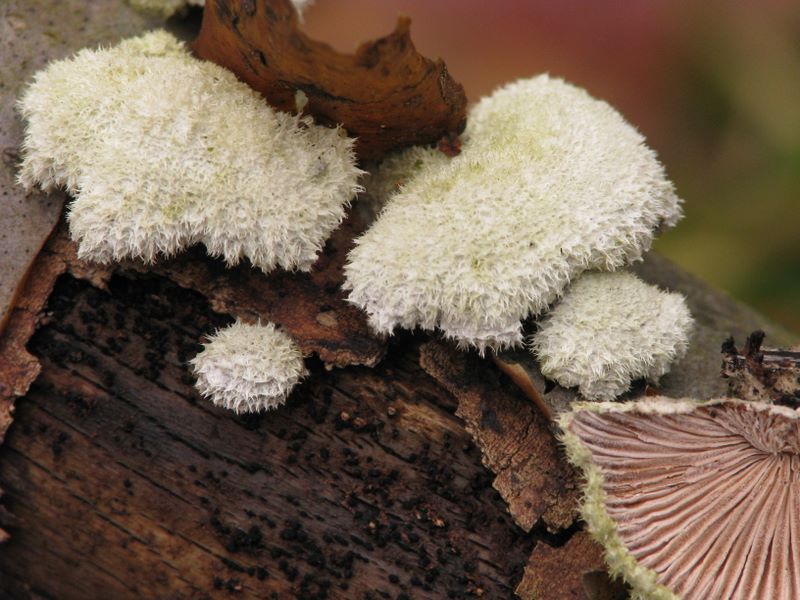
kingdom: Fungi
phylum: Basidiomycota
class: Agaricomycetes
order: Agaricales
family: Schizophyllaceae
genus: Schizophyllum
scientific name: Schizophyllum commune
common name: kløvblad
